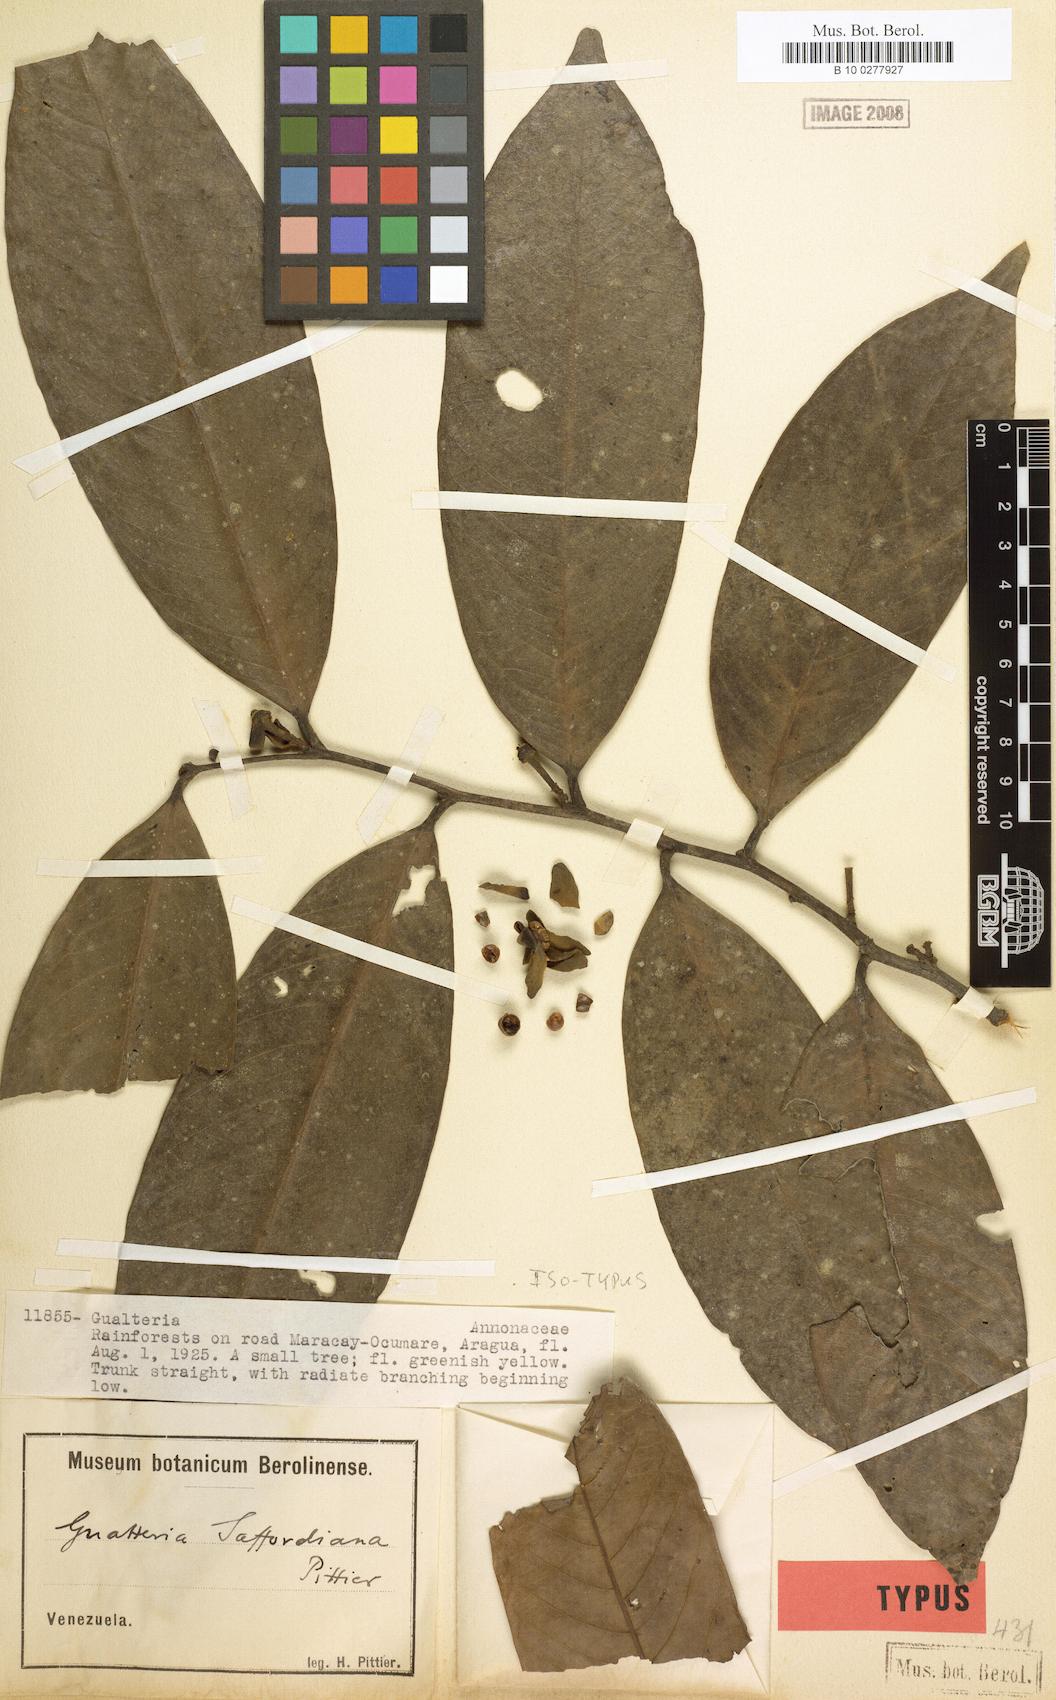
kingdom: Plantae
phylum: Tracheophyta
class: Magnoliopsida
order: Magnoliales
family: Annonaceae
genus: Guatteria
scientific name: Guatteria saffordiana
